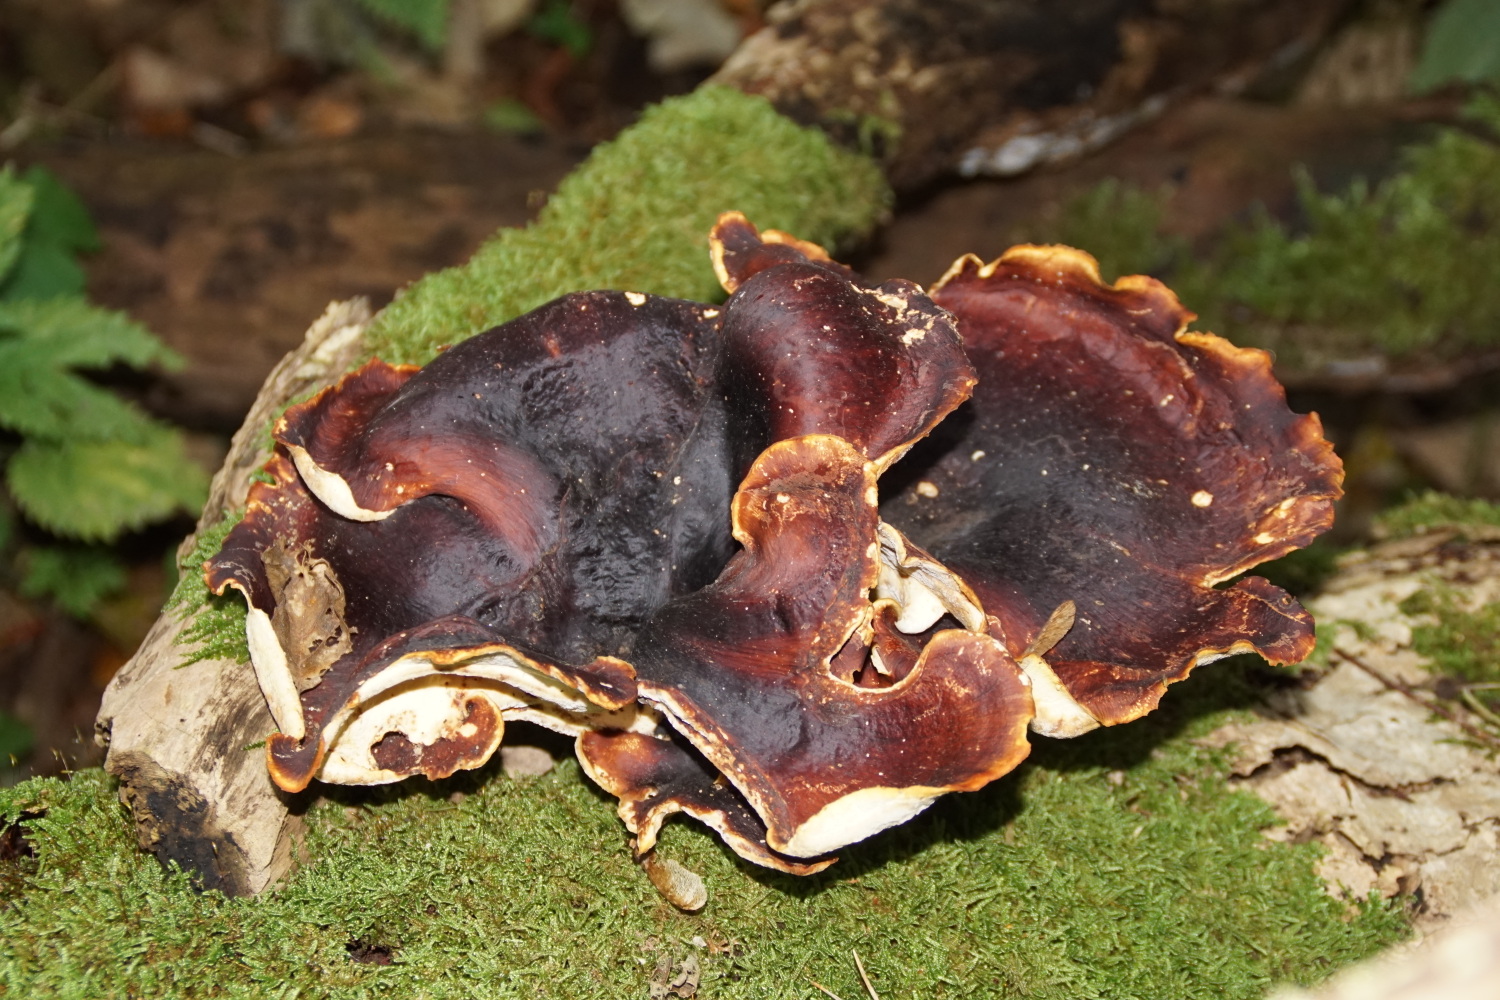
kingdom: Fungi
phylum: Basidiomycota
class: Agaricomycetes
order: Polyporales
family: Polyporaceae
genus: Picipes
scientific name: Picipes badius
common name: kastaniebrun stilkporesvamp
